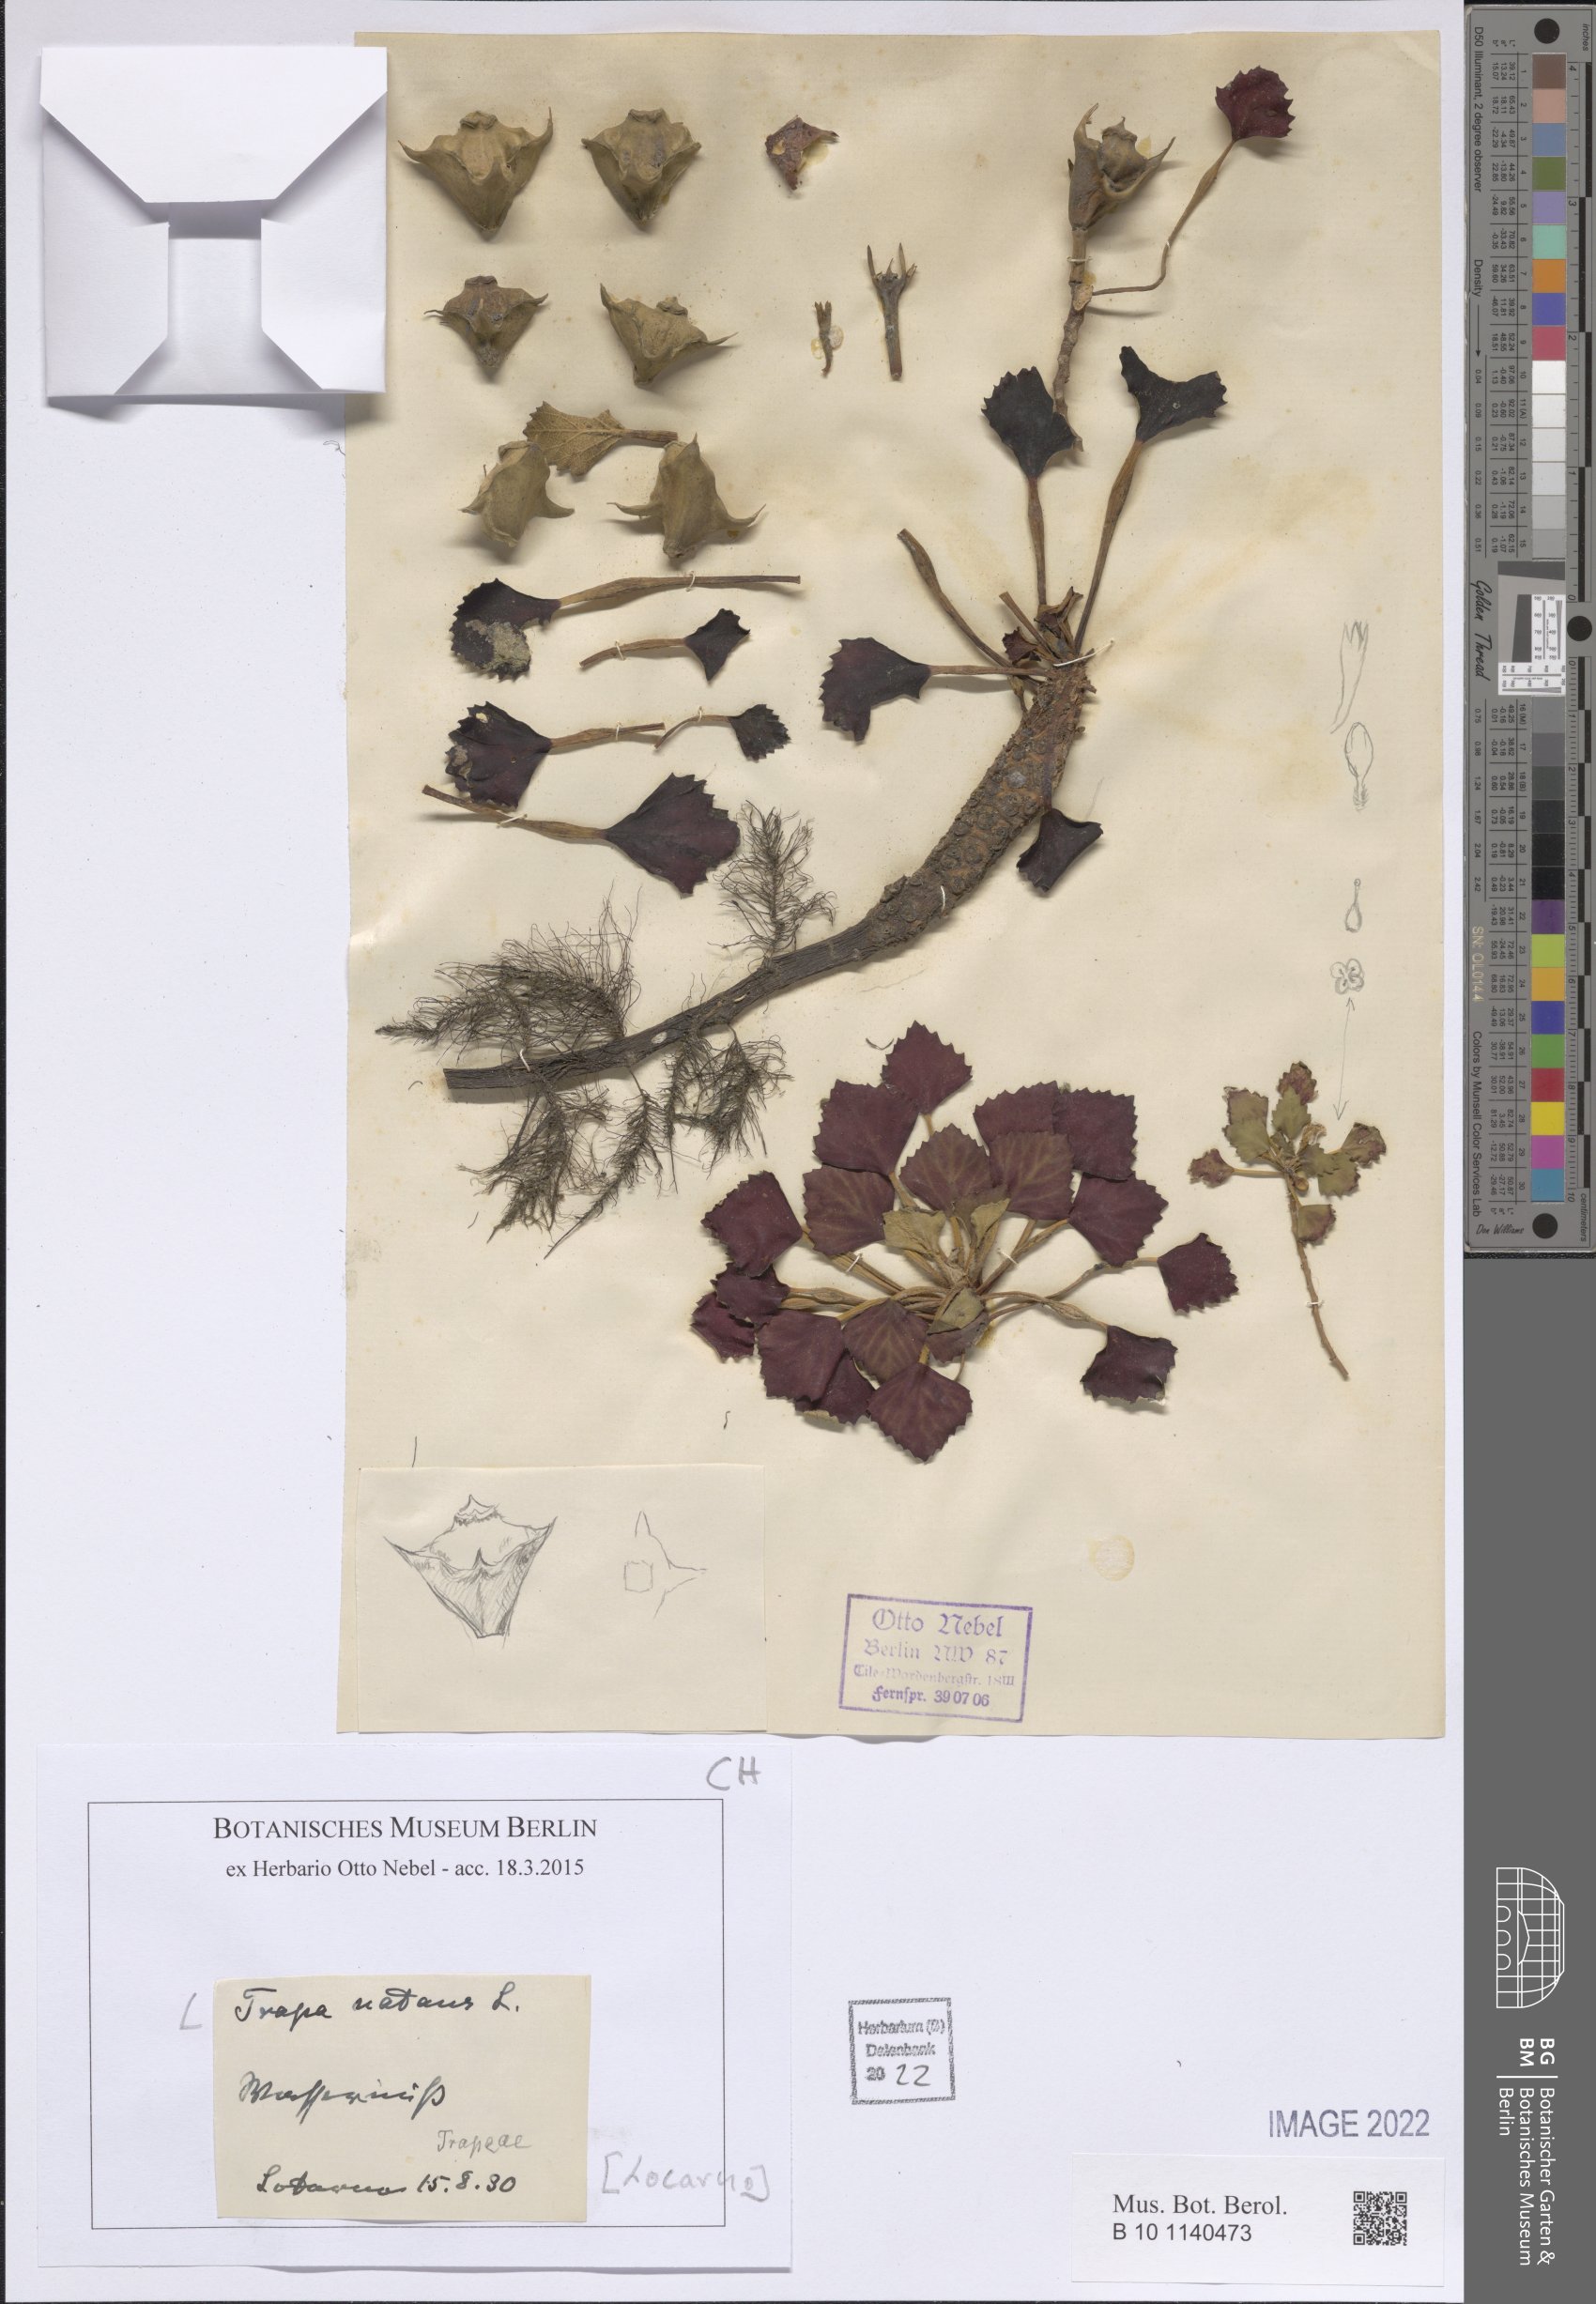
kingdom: Plantae
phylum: Tracheophyta
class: Magnoliopsida
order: Myrtales
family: Lythraceae
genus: Trapa
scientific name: Trapa natans
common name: Water chestnut
